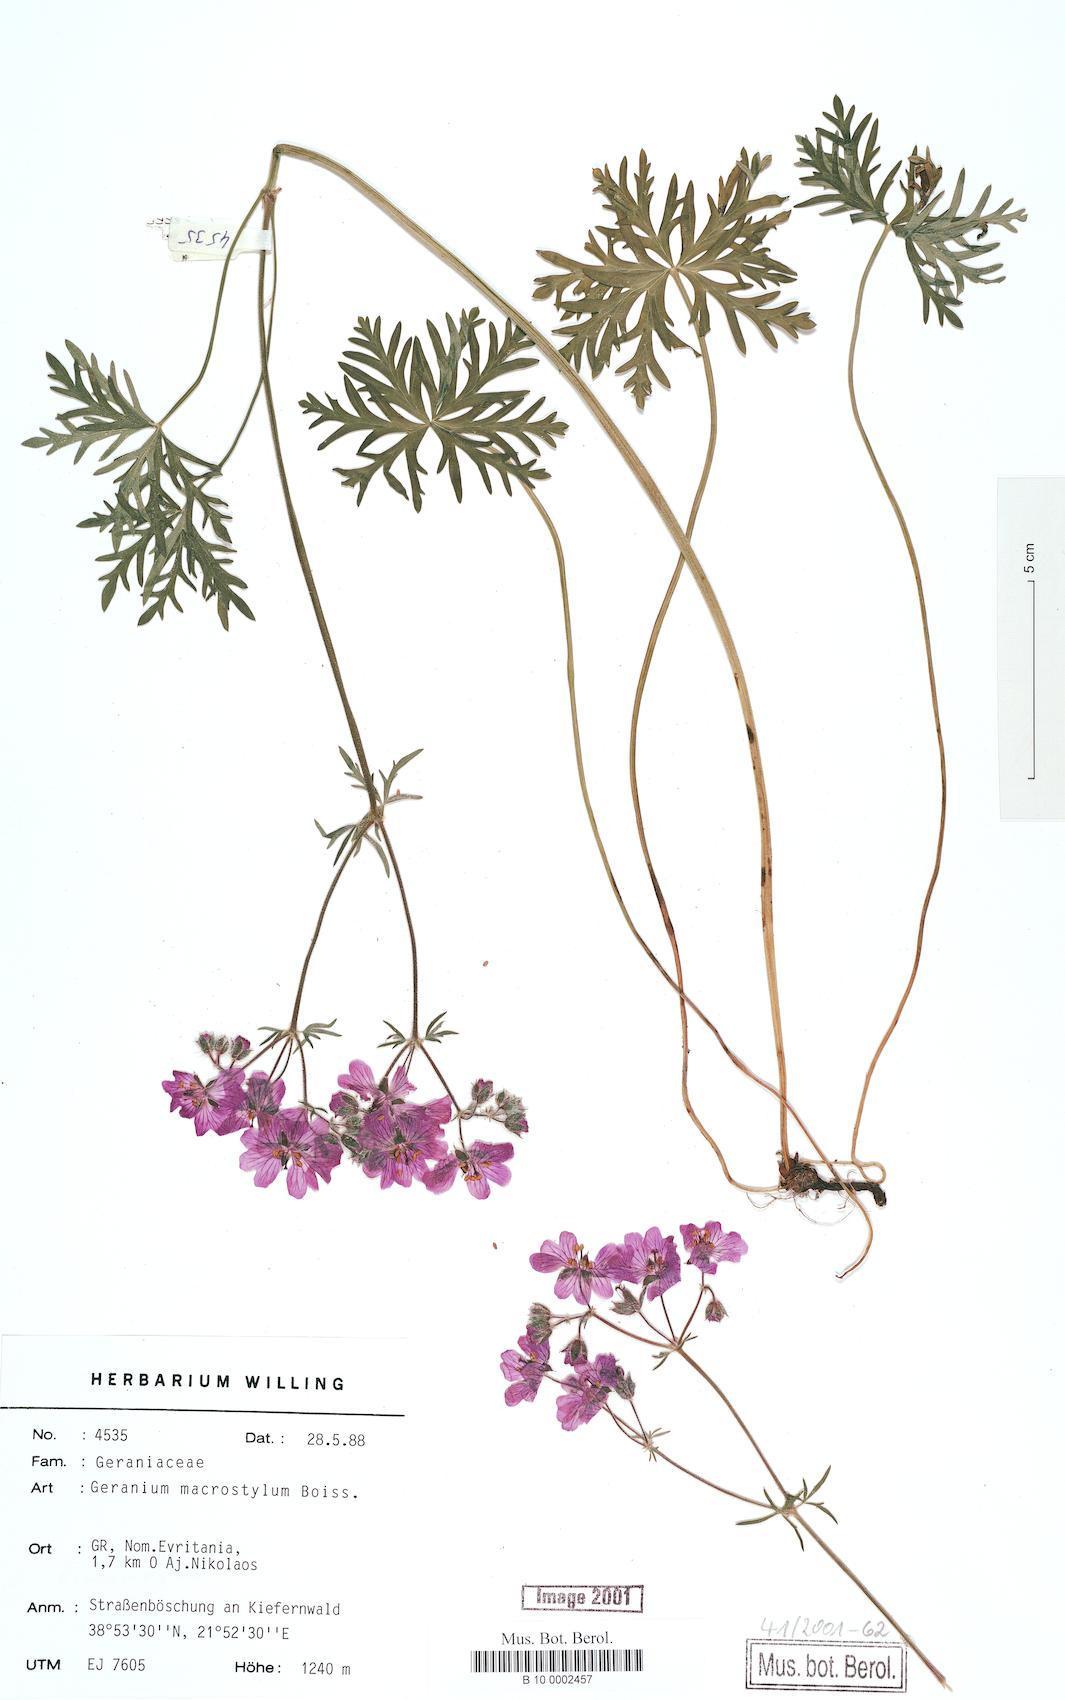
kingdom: Plantae
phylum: Tracheophyta
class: Magnoliopsida
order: Geraniales
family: Geraniaceae
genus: Geranium
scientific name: Geranium macrostylum
